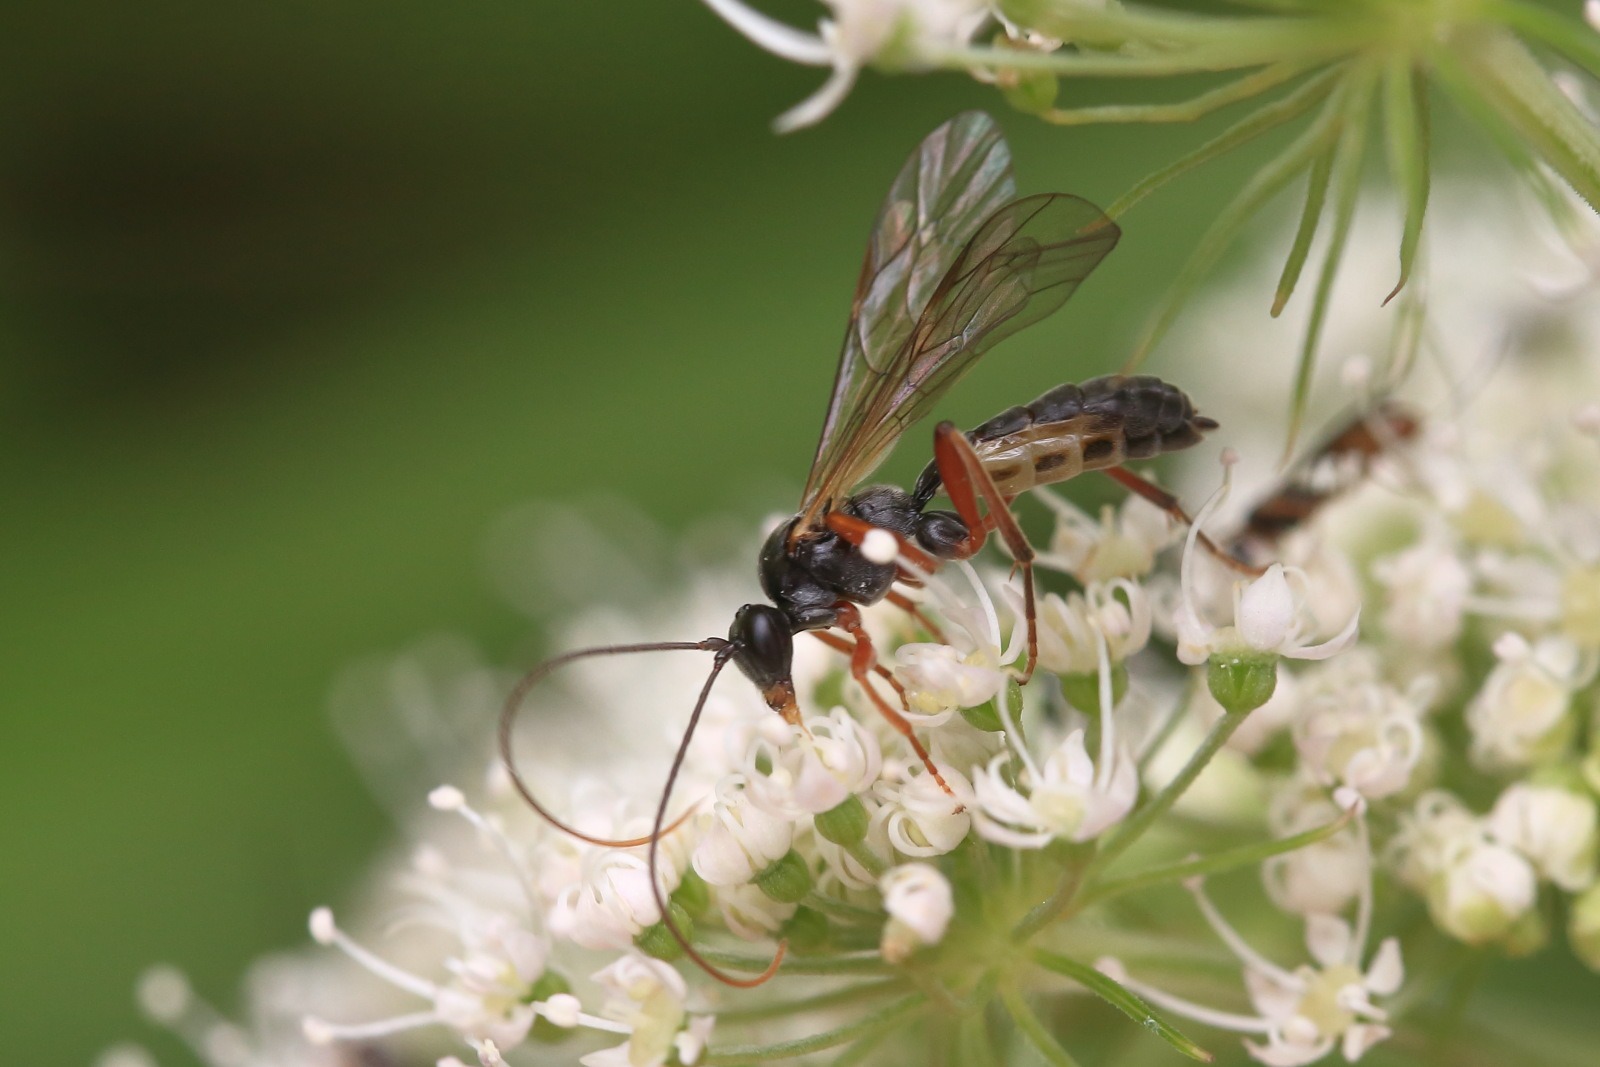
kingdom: Animalia
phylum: Arthropoda
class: Insecta
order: Hymenoptera
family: Ichneumonidae
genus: Dyspetes
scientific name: Dyspetes luteomarginatus
